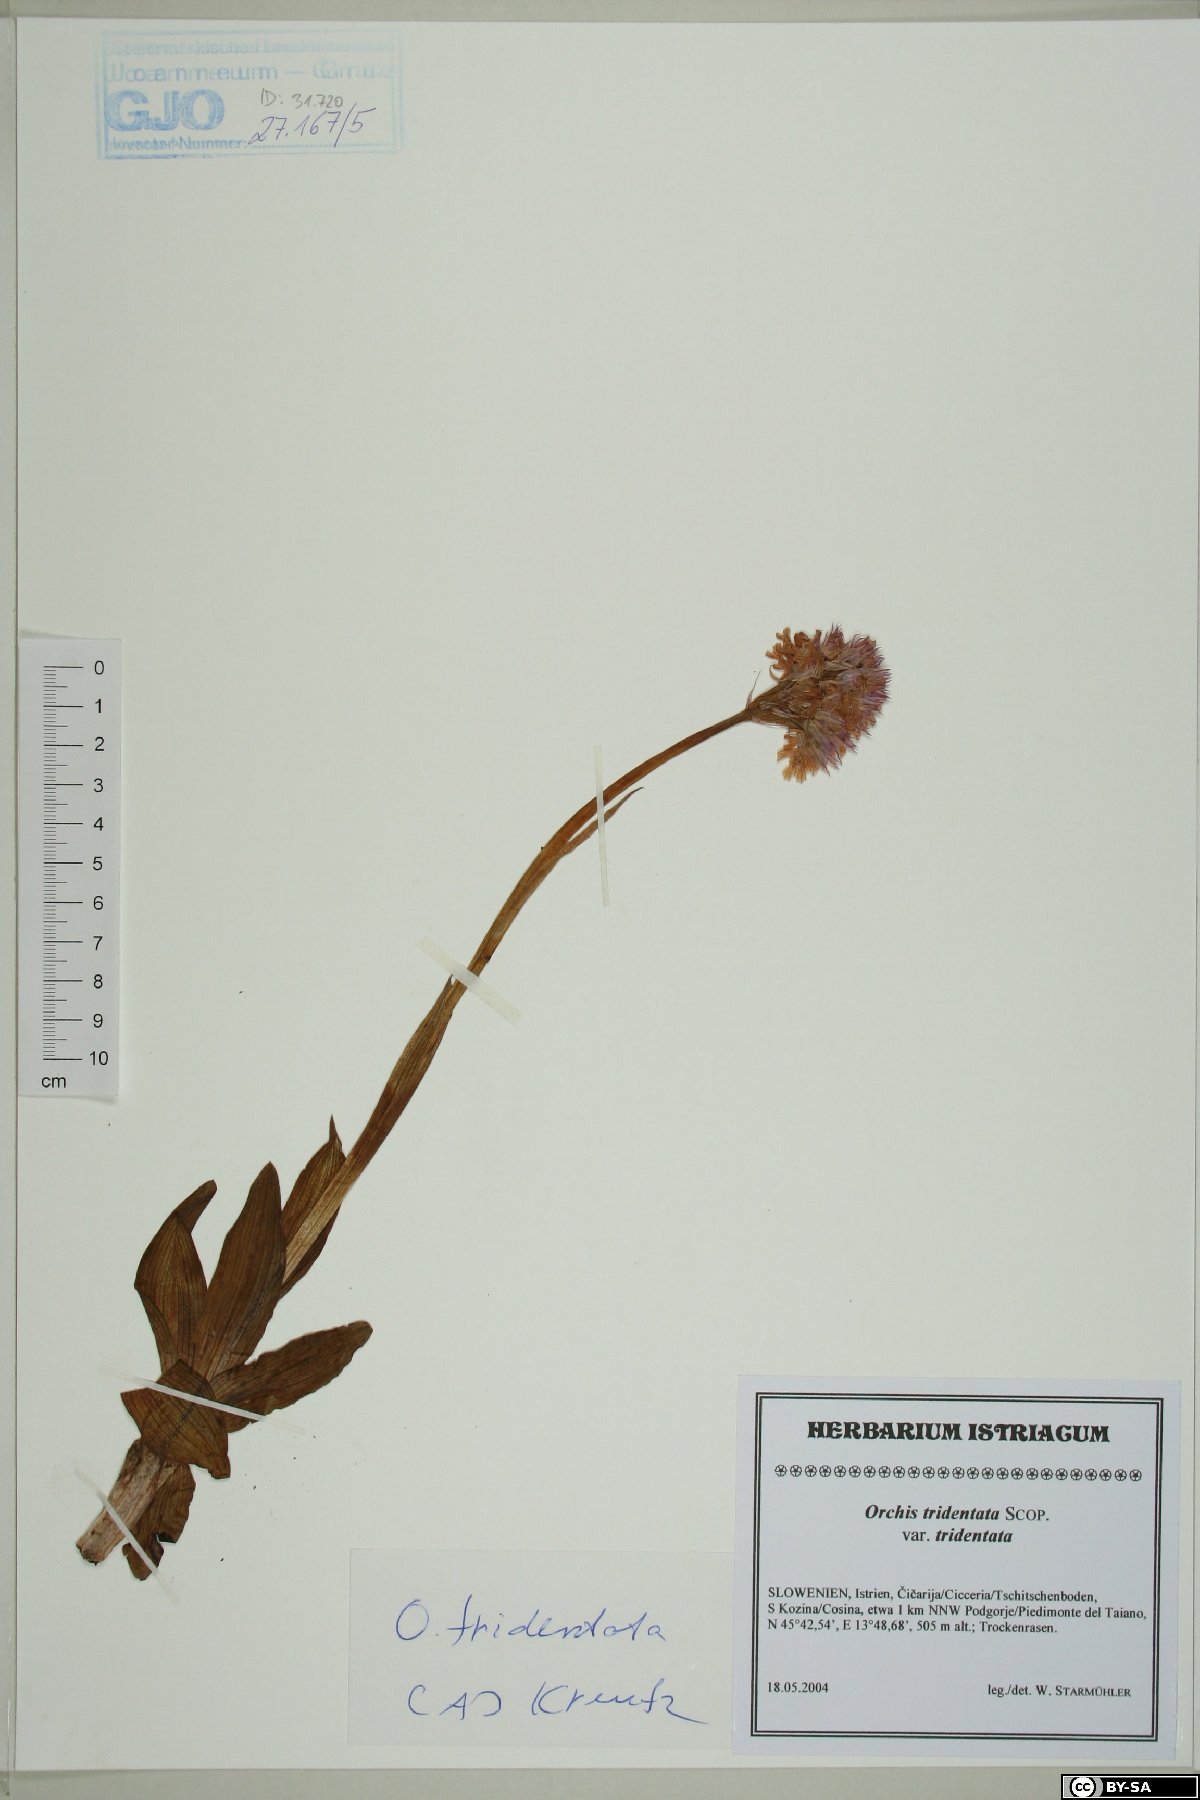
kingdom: Plantae
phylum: Tracheophyta
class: Liliopsida
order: Asparagales
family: Orchidaceae
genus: Neotinea
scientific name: Neotinea tridentata
